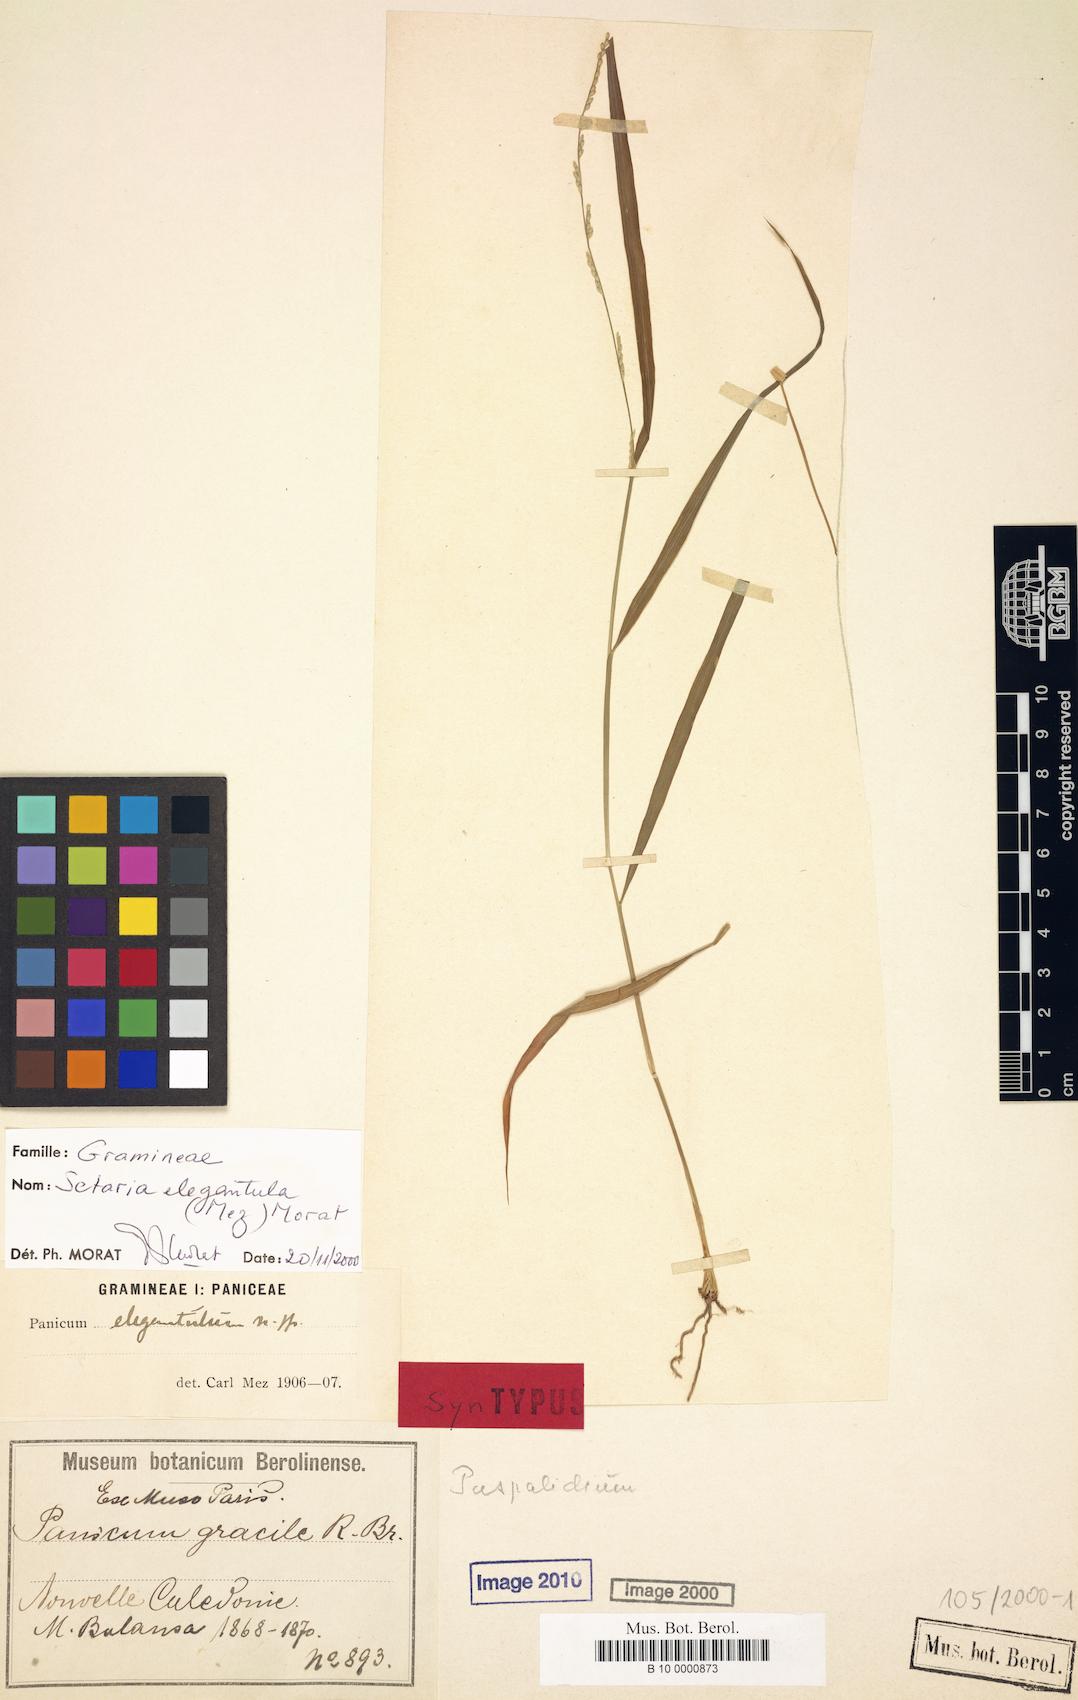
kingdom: Plantae
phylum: Tracheophyta
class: Liliopsida
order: Poales
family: Poaceae
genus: Setaria
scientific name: Setaria elegantula
